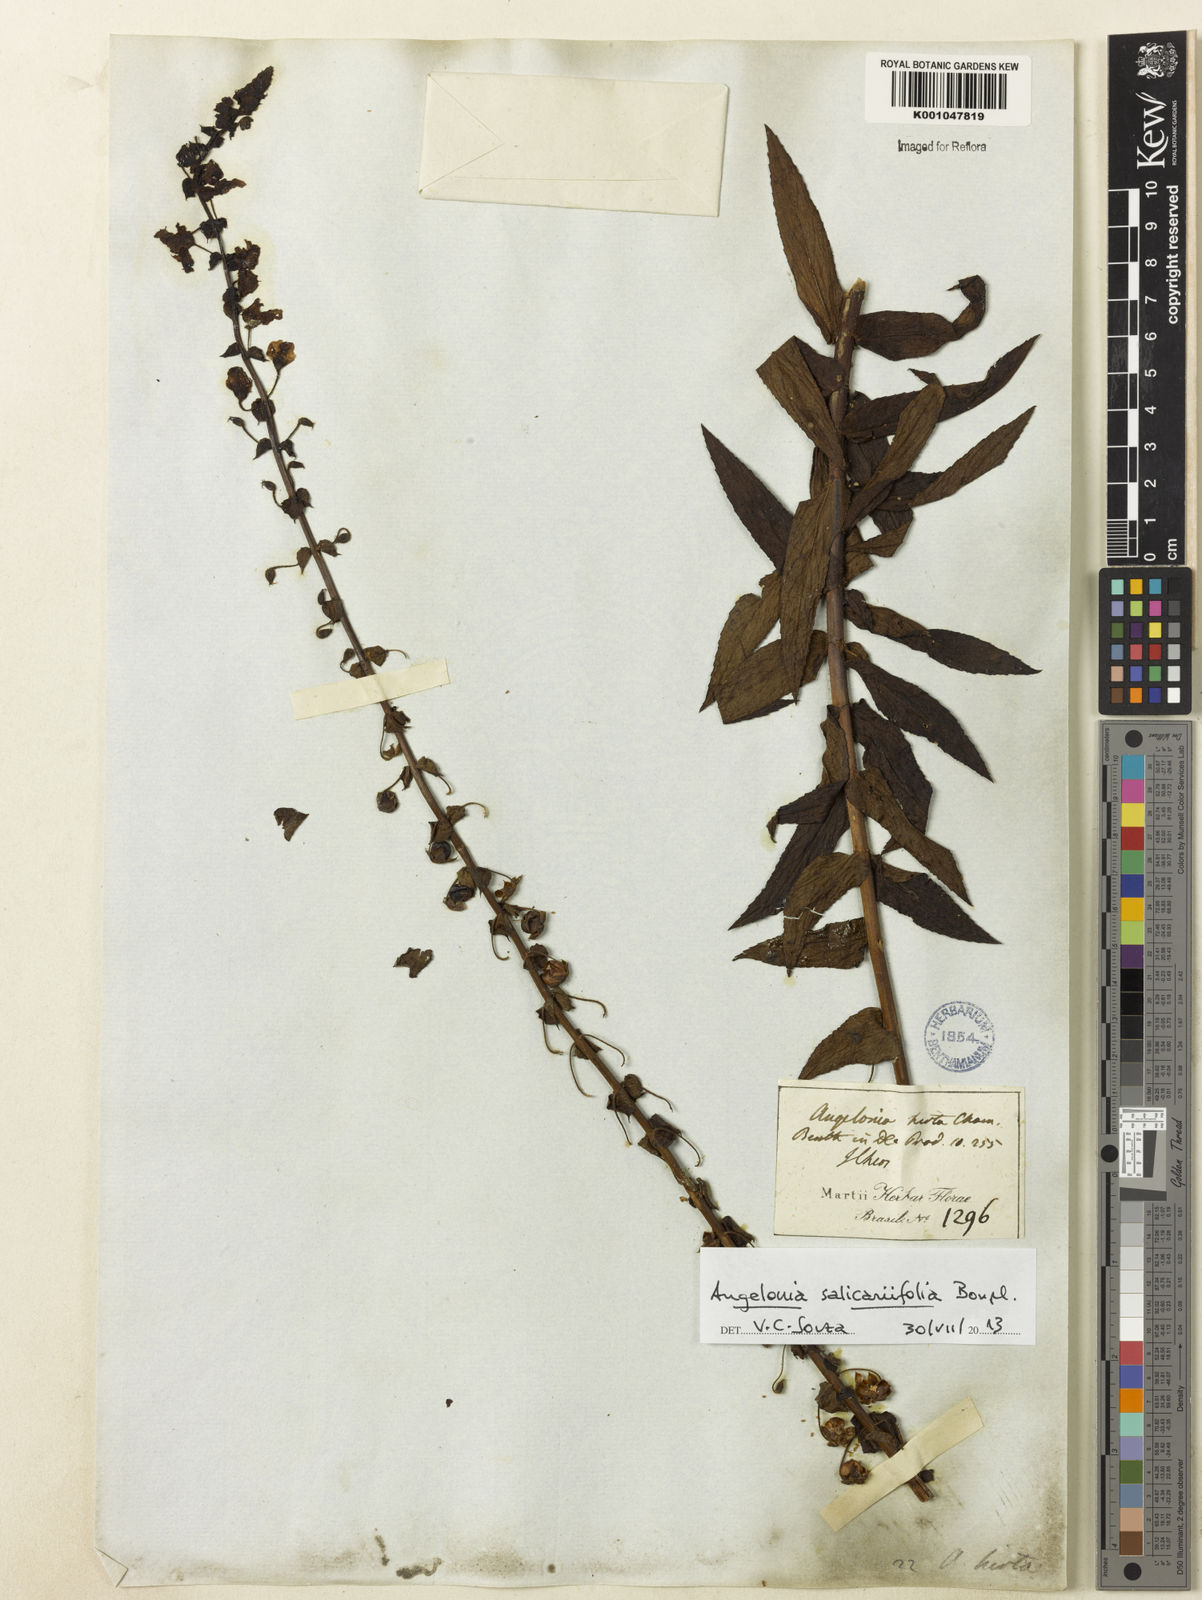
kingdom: Plantae
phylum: Tracheophyta
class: Magnoliopsida
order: Lamiales
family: Plantaginaceae
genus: Angelonia
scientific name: Angelonia salicariifolia
